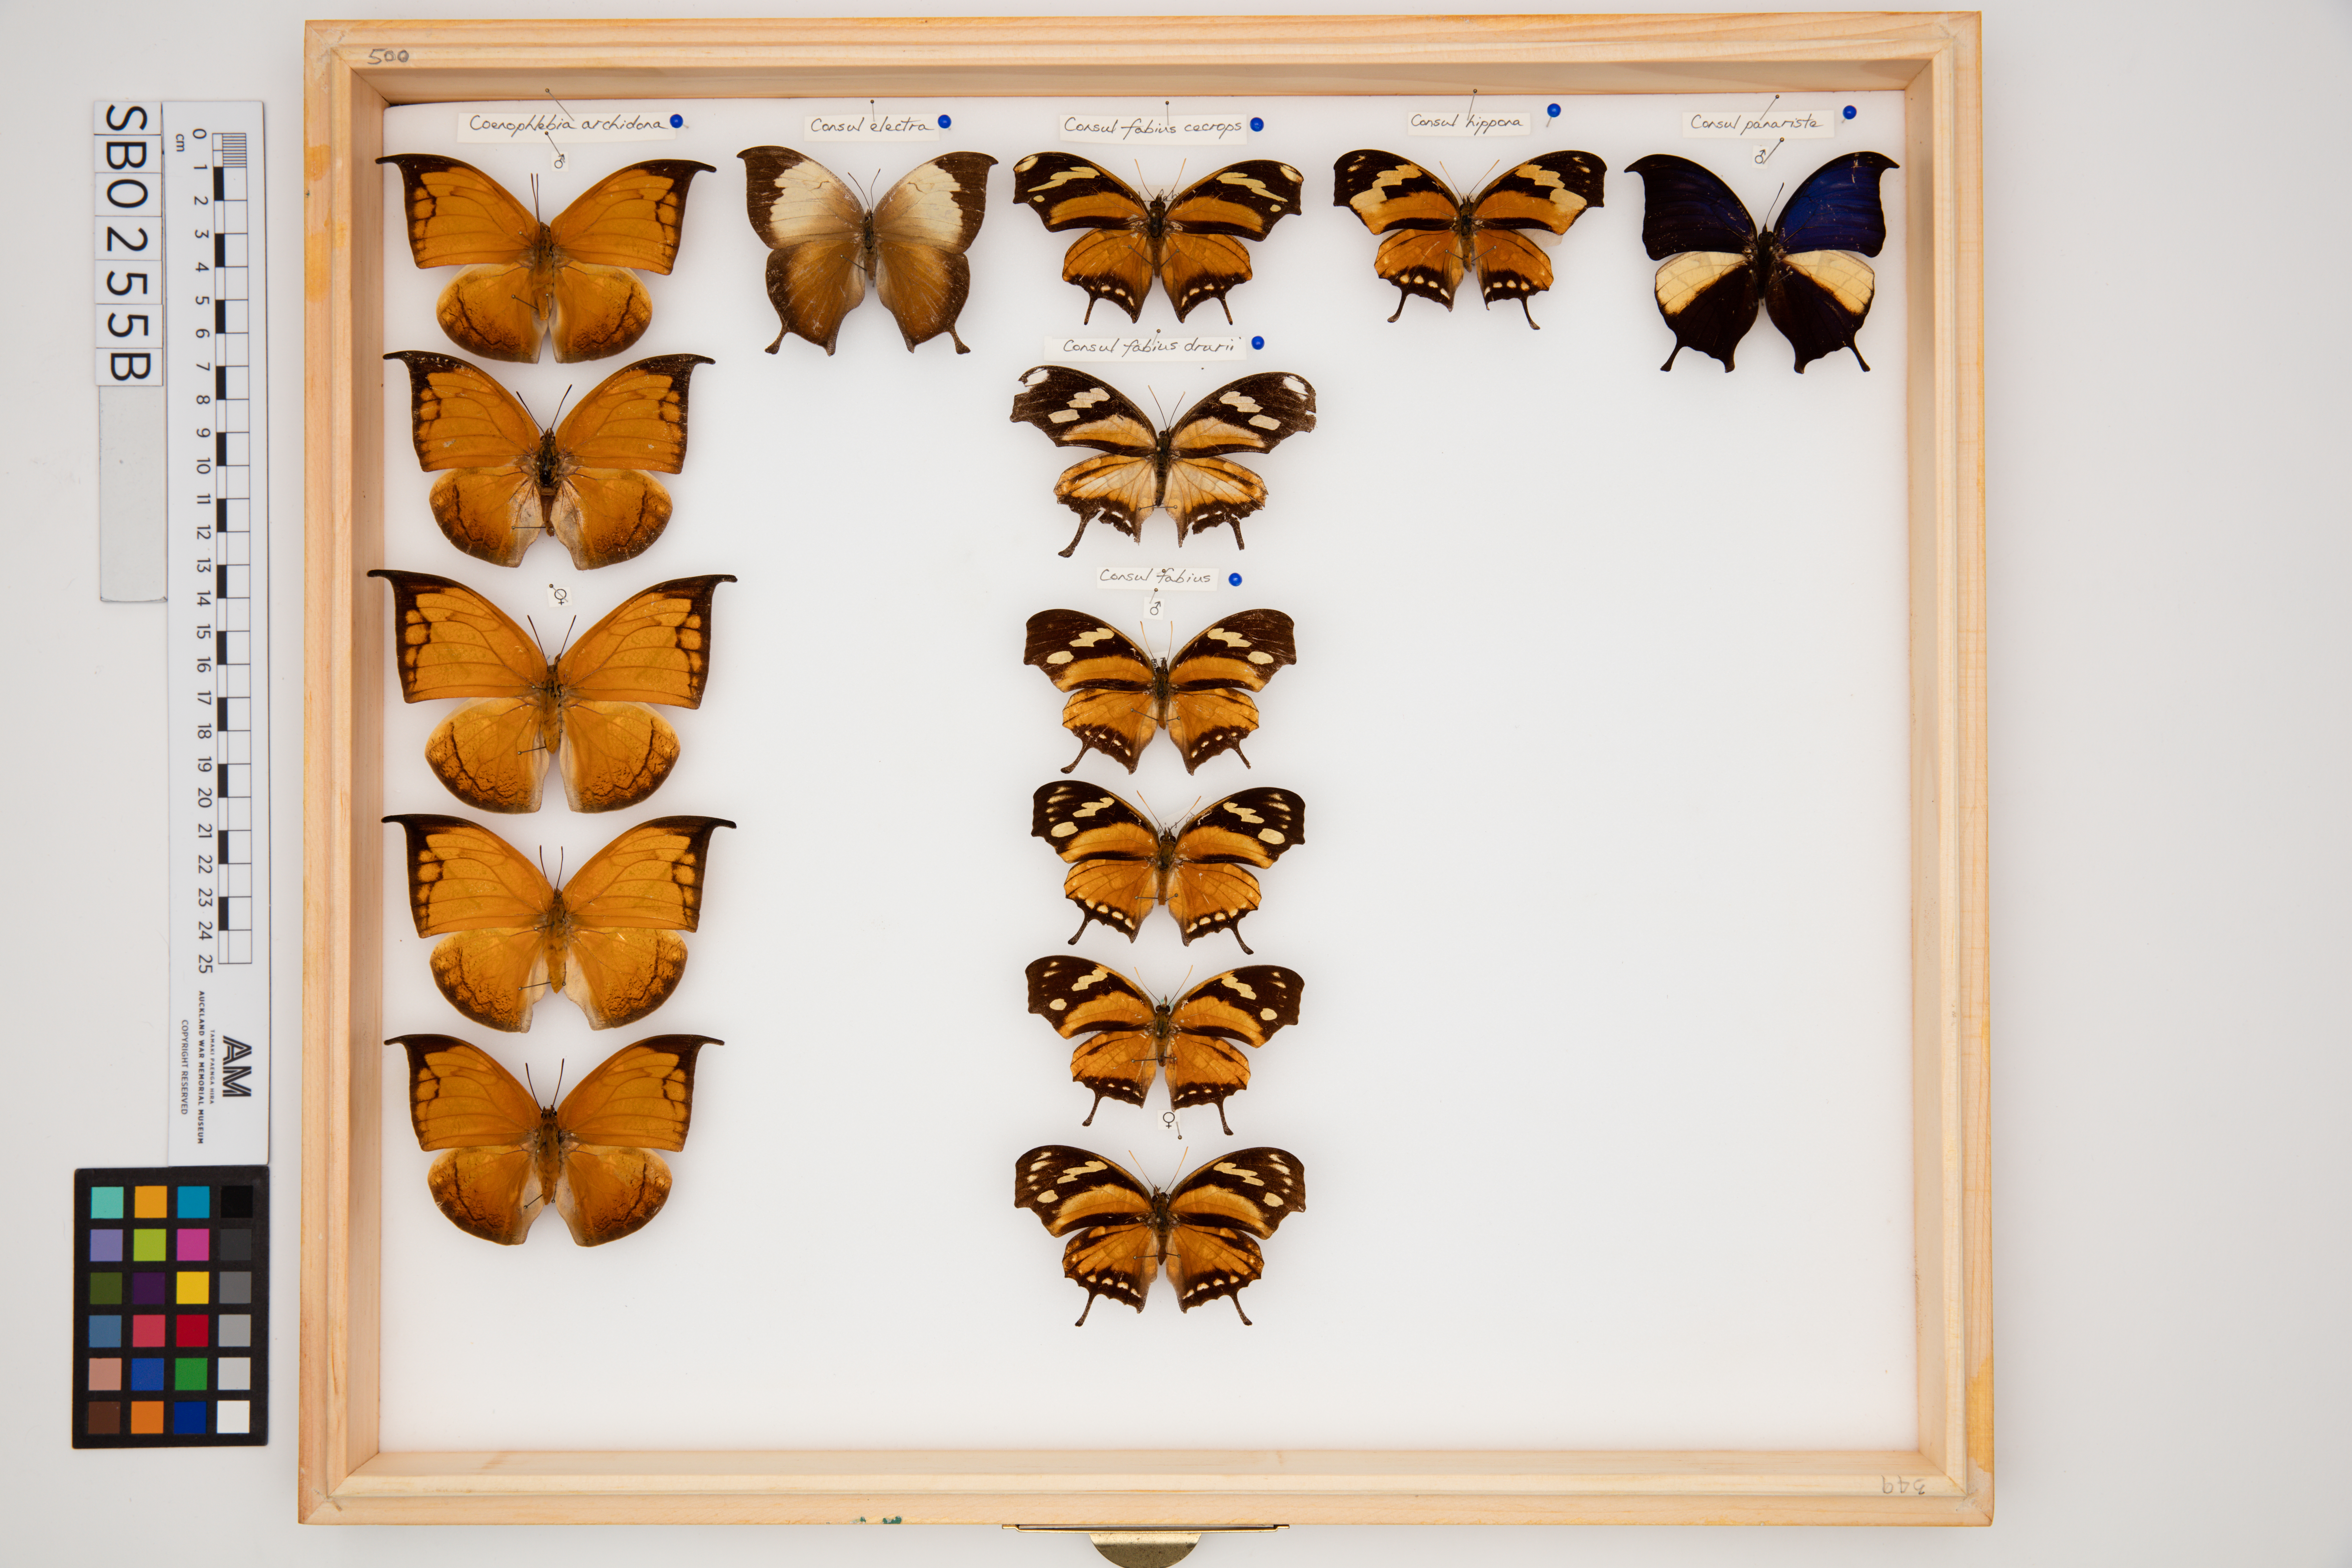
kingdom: Animalia
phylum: Arthropoda
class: Insecta
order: Lepidoptera
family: Nymphalidae
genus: Consul
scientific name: Consul fabius
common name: Tiger leafwing
